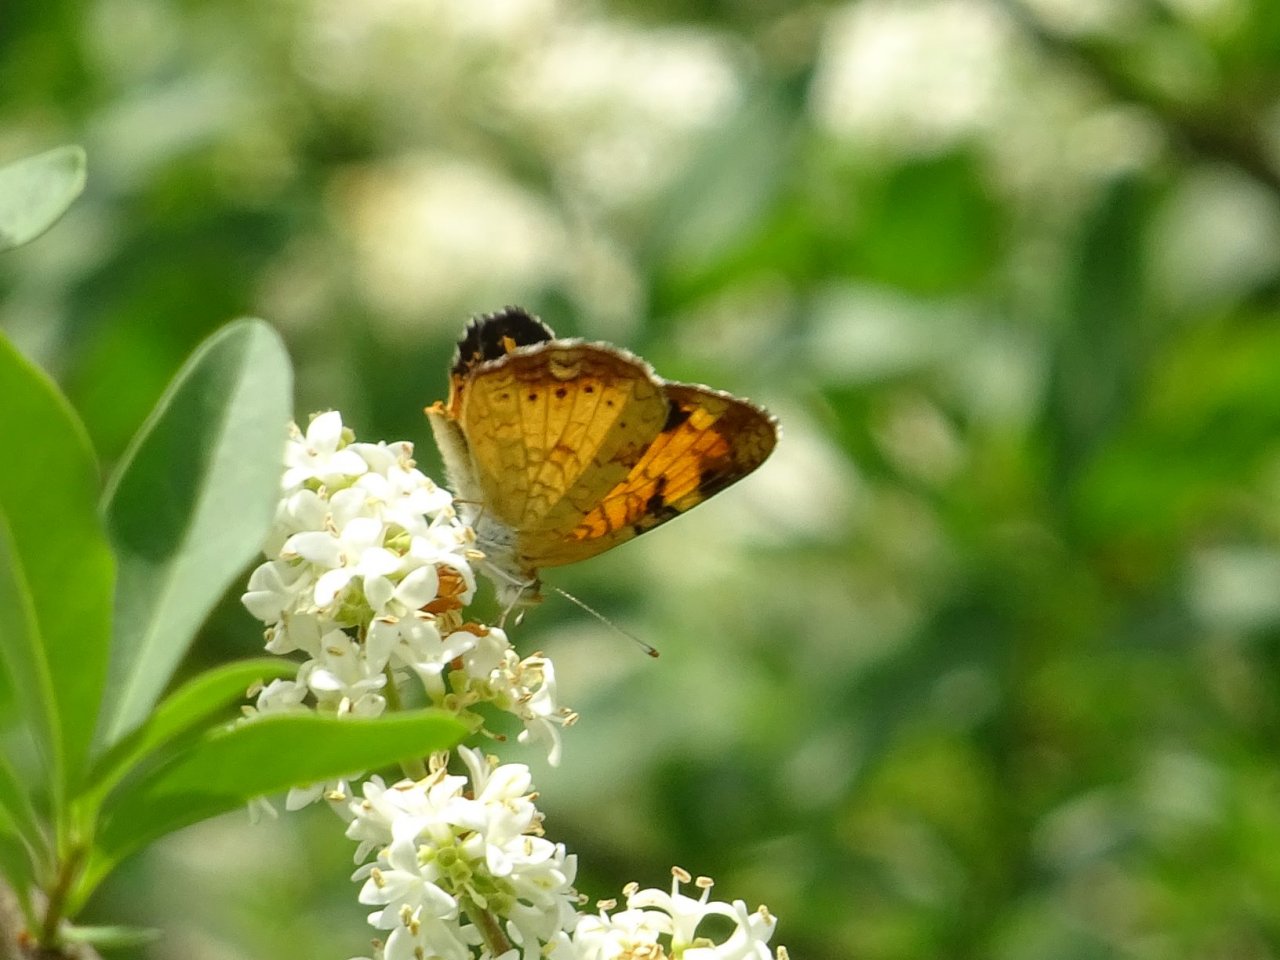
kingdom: Animalia
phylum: Arthropoda
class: Insecta
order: Lepidoptera
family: Nymphalidae
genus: Phyciodes
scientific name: Phyciodes tharos
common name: Northern Crescent
